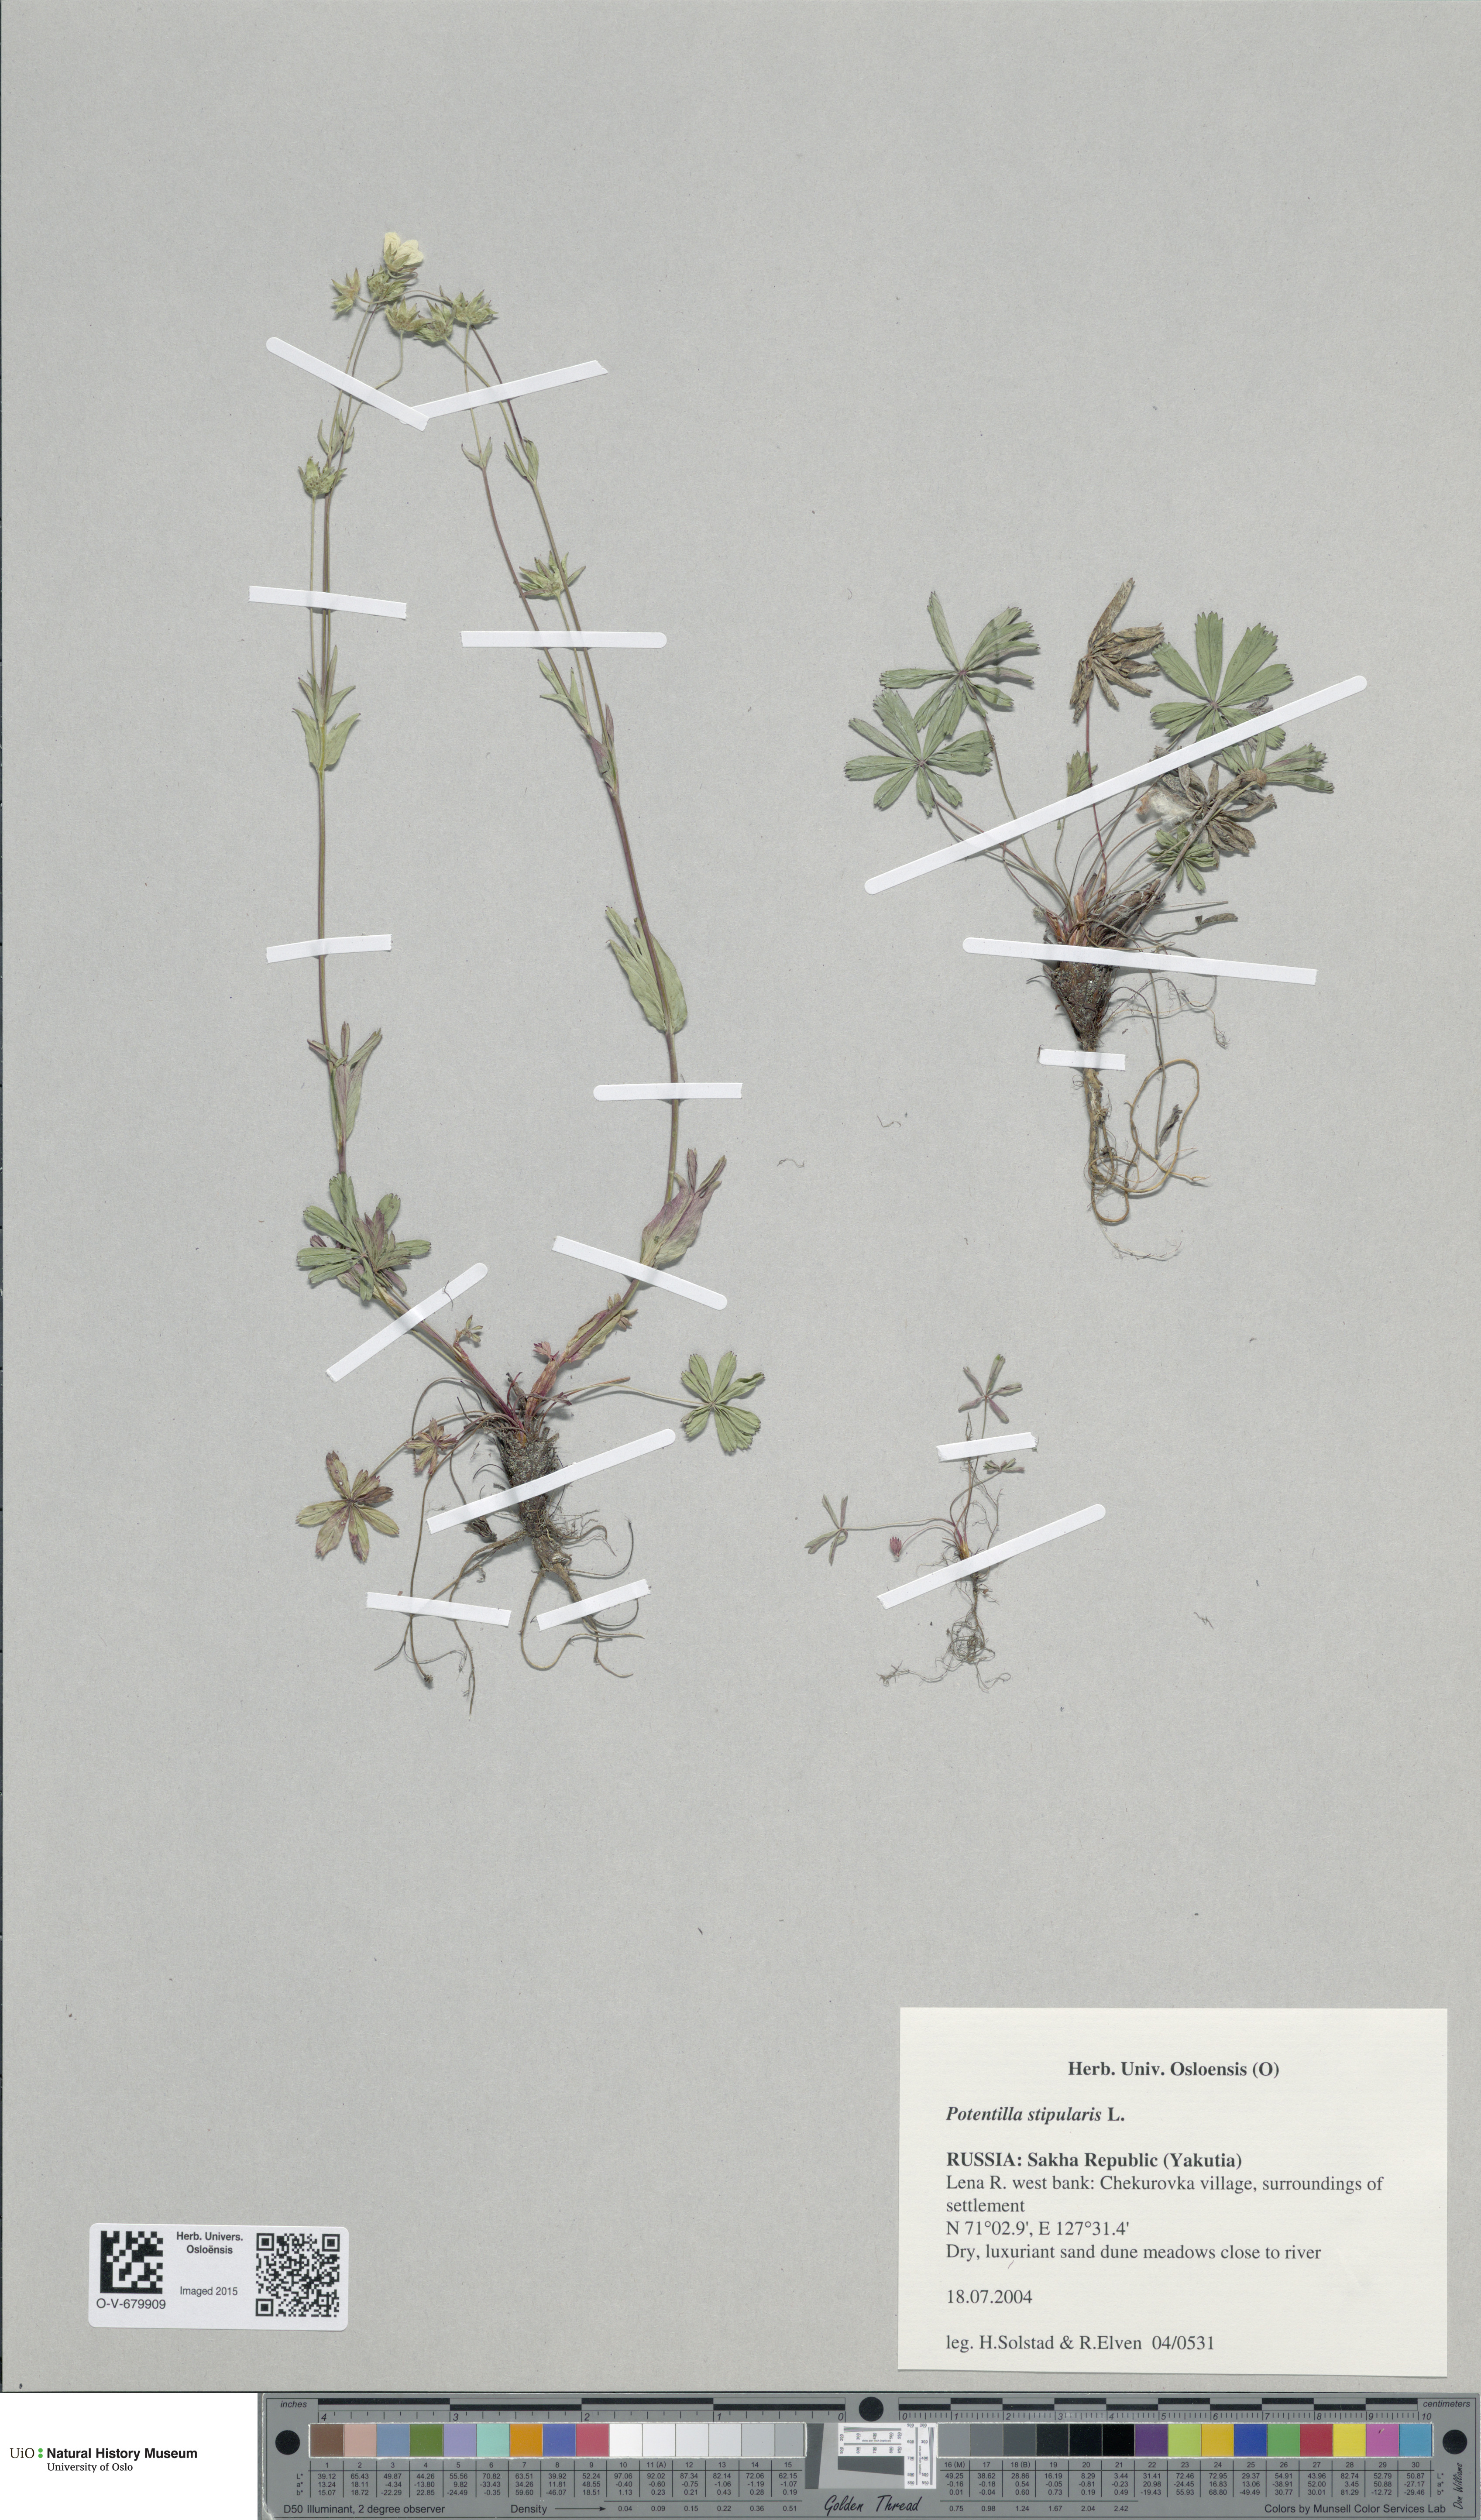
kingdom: Plantae
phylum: Tracheophyta
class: Magnoliopsida
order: Rosales
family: Rosaceae
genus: Potentilla
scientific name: Potentilla stipularis
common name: Circumpolar cinquefoil
